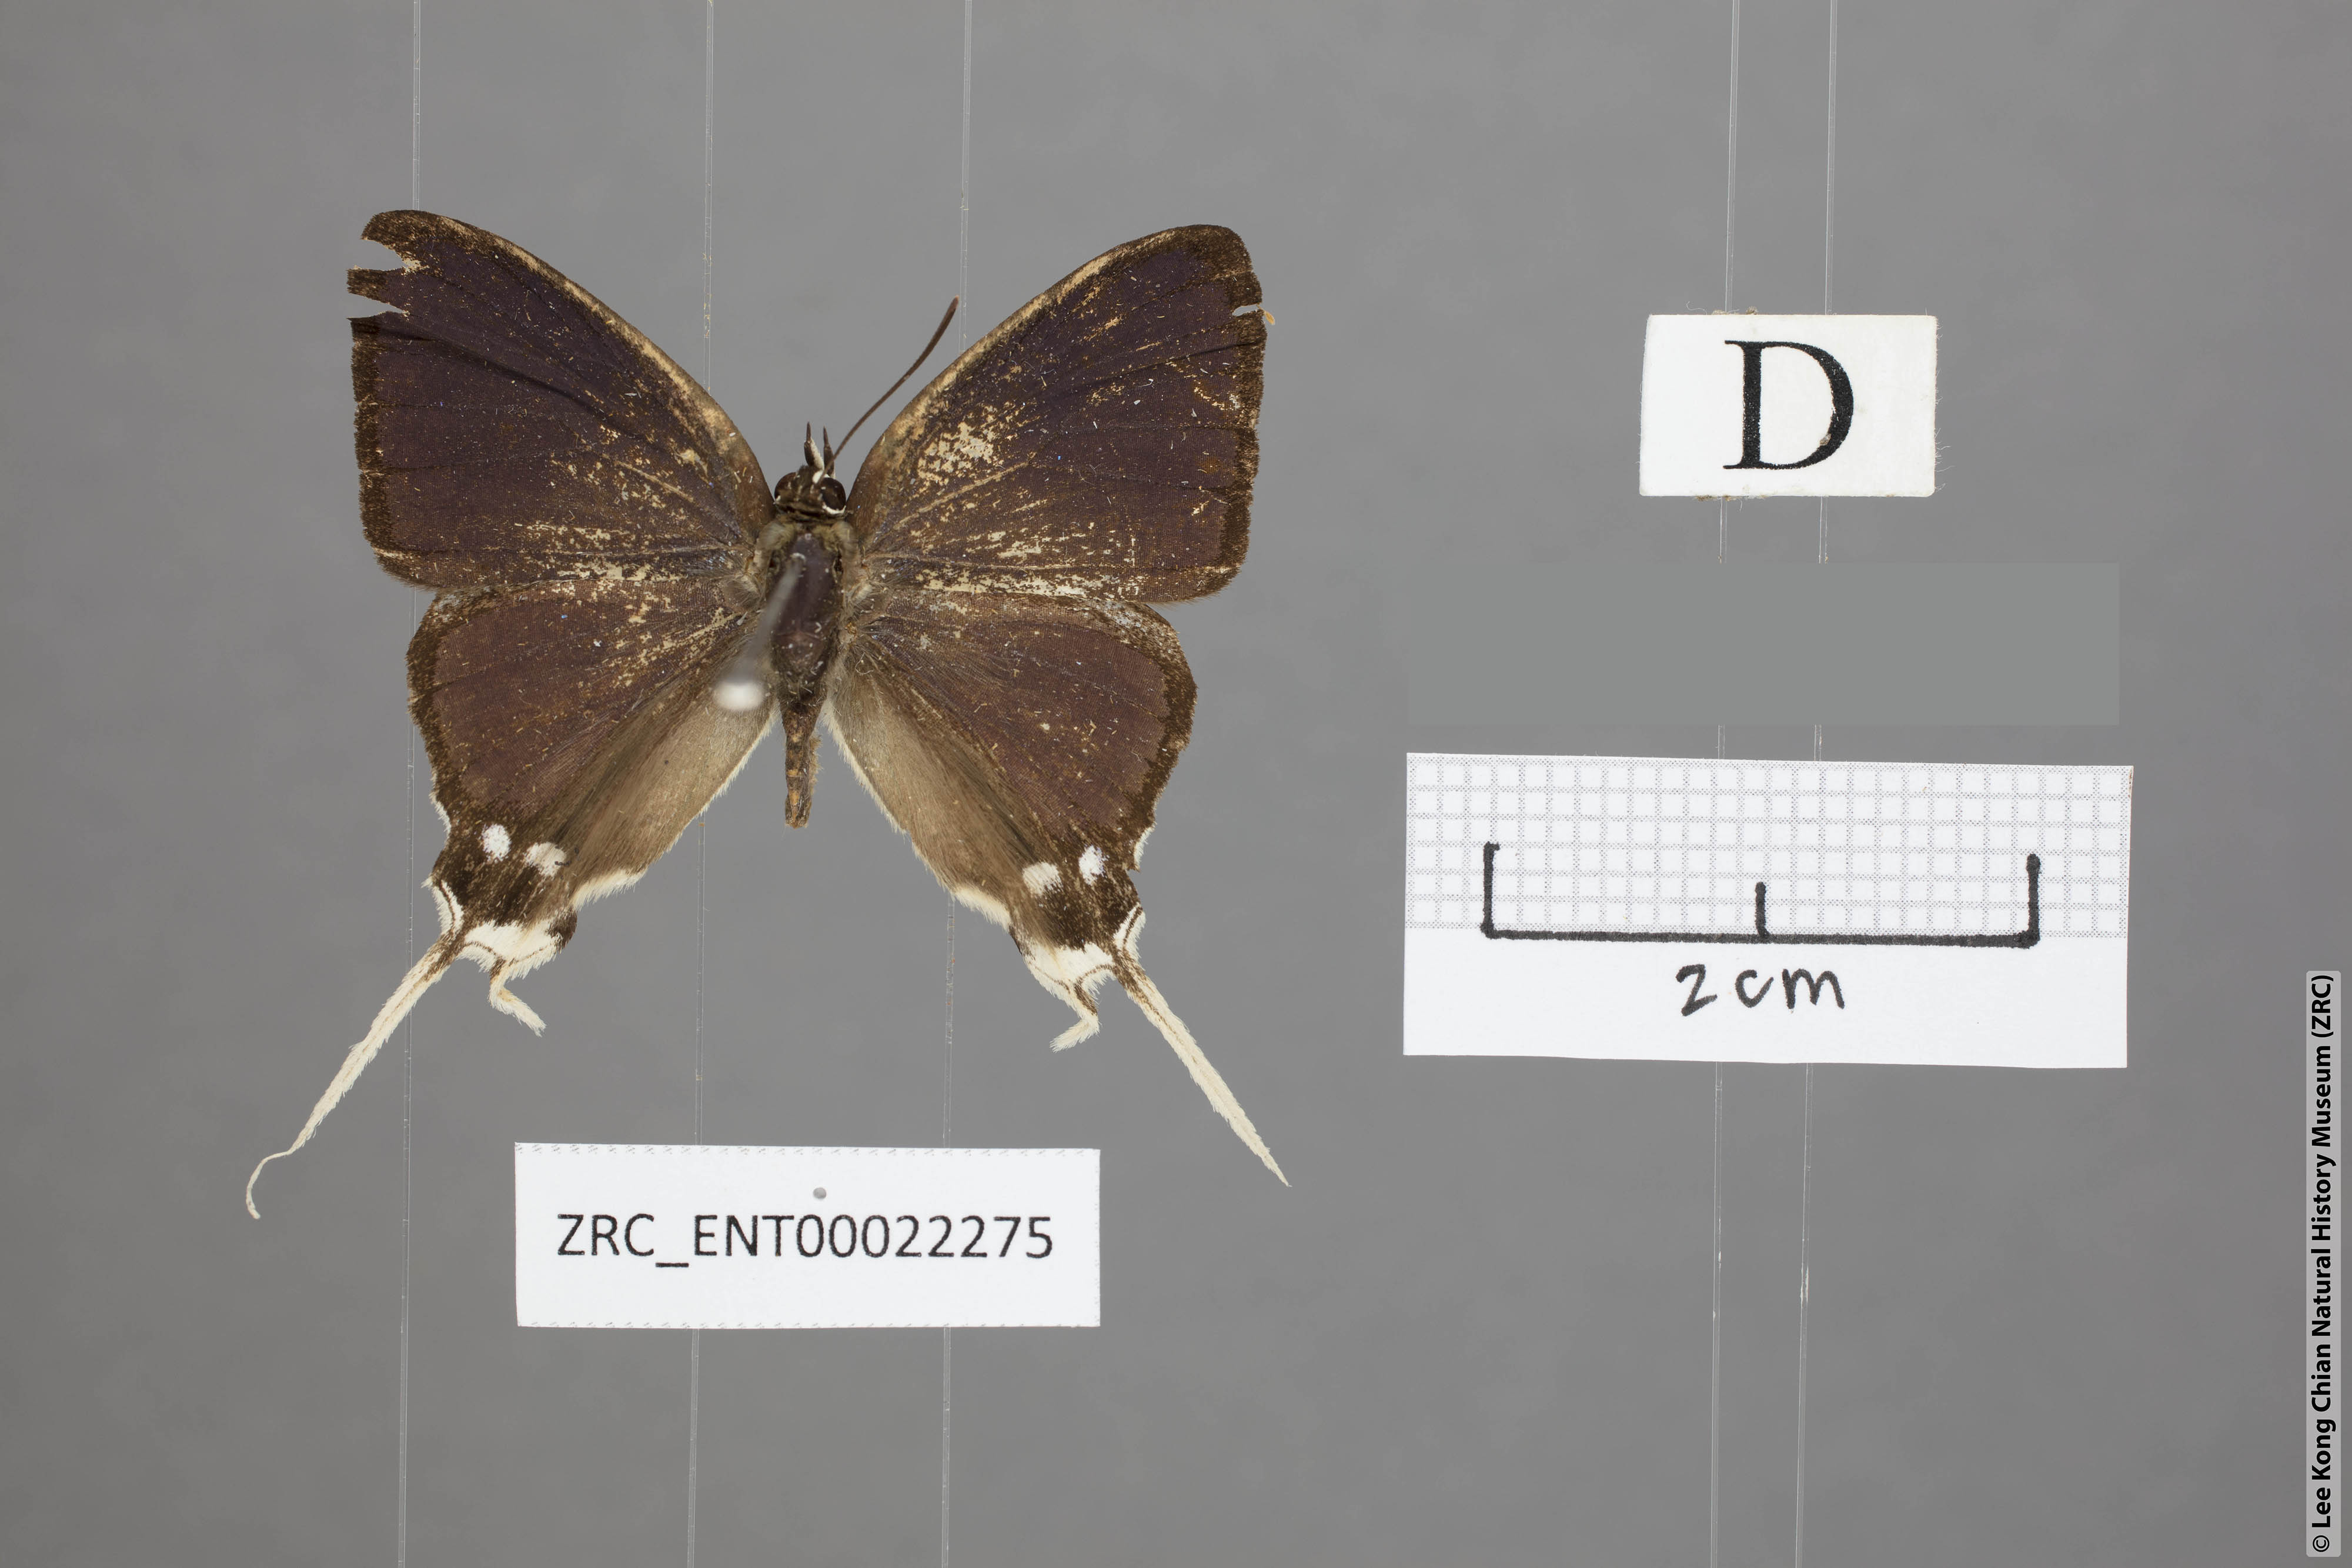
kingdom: Animalia
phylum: Arthropoda
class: Insecta
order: Lepidoptera
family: Lycaenidae
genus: Ticherra
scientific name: Ticherra acte
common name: Blue imperial
